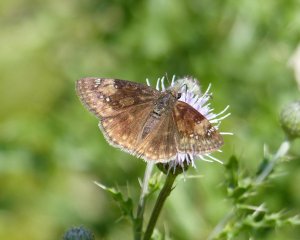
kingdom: Animalia
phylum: Arthropoda
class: Insecta
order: Lepidoptera
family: Hesperiidae
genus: Gesta
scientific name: Gesta
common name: Wild Indigo Duskywing
